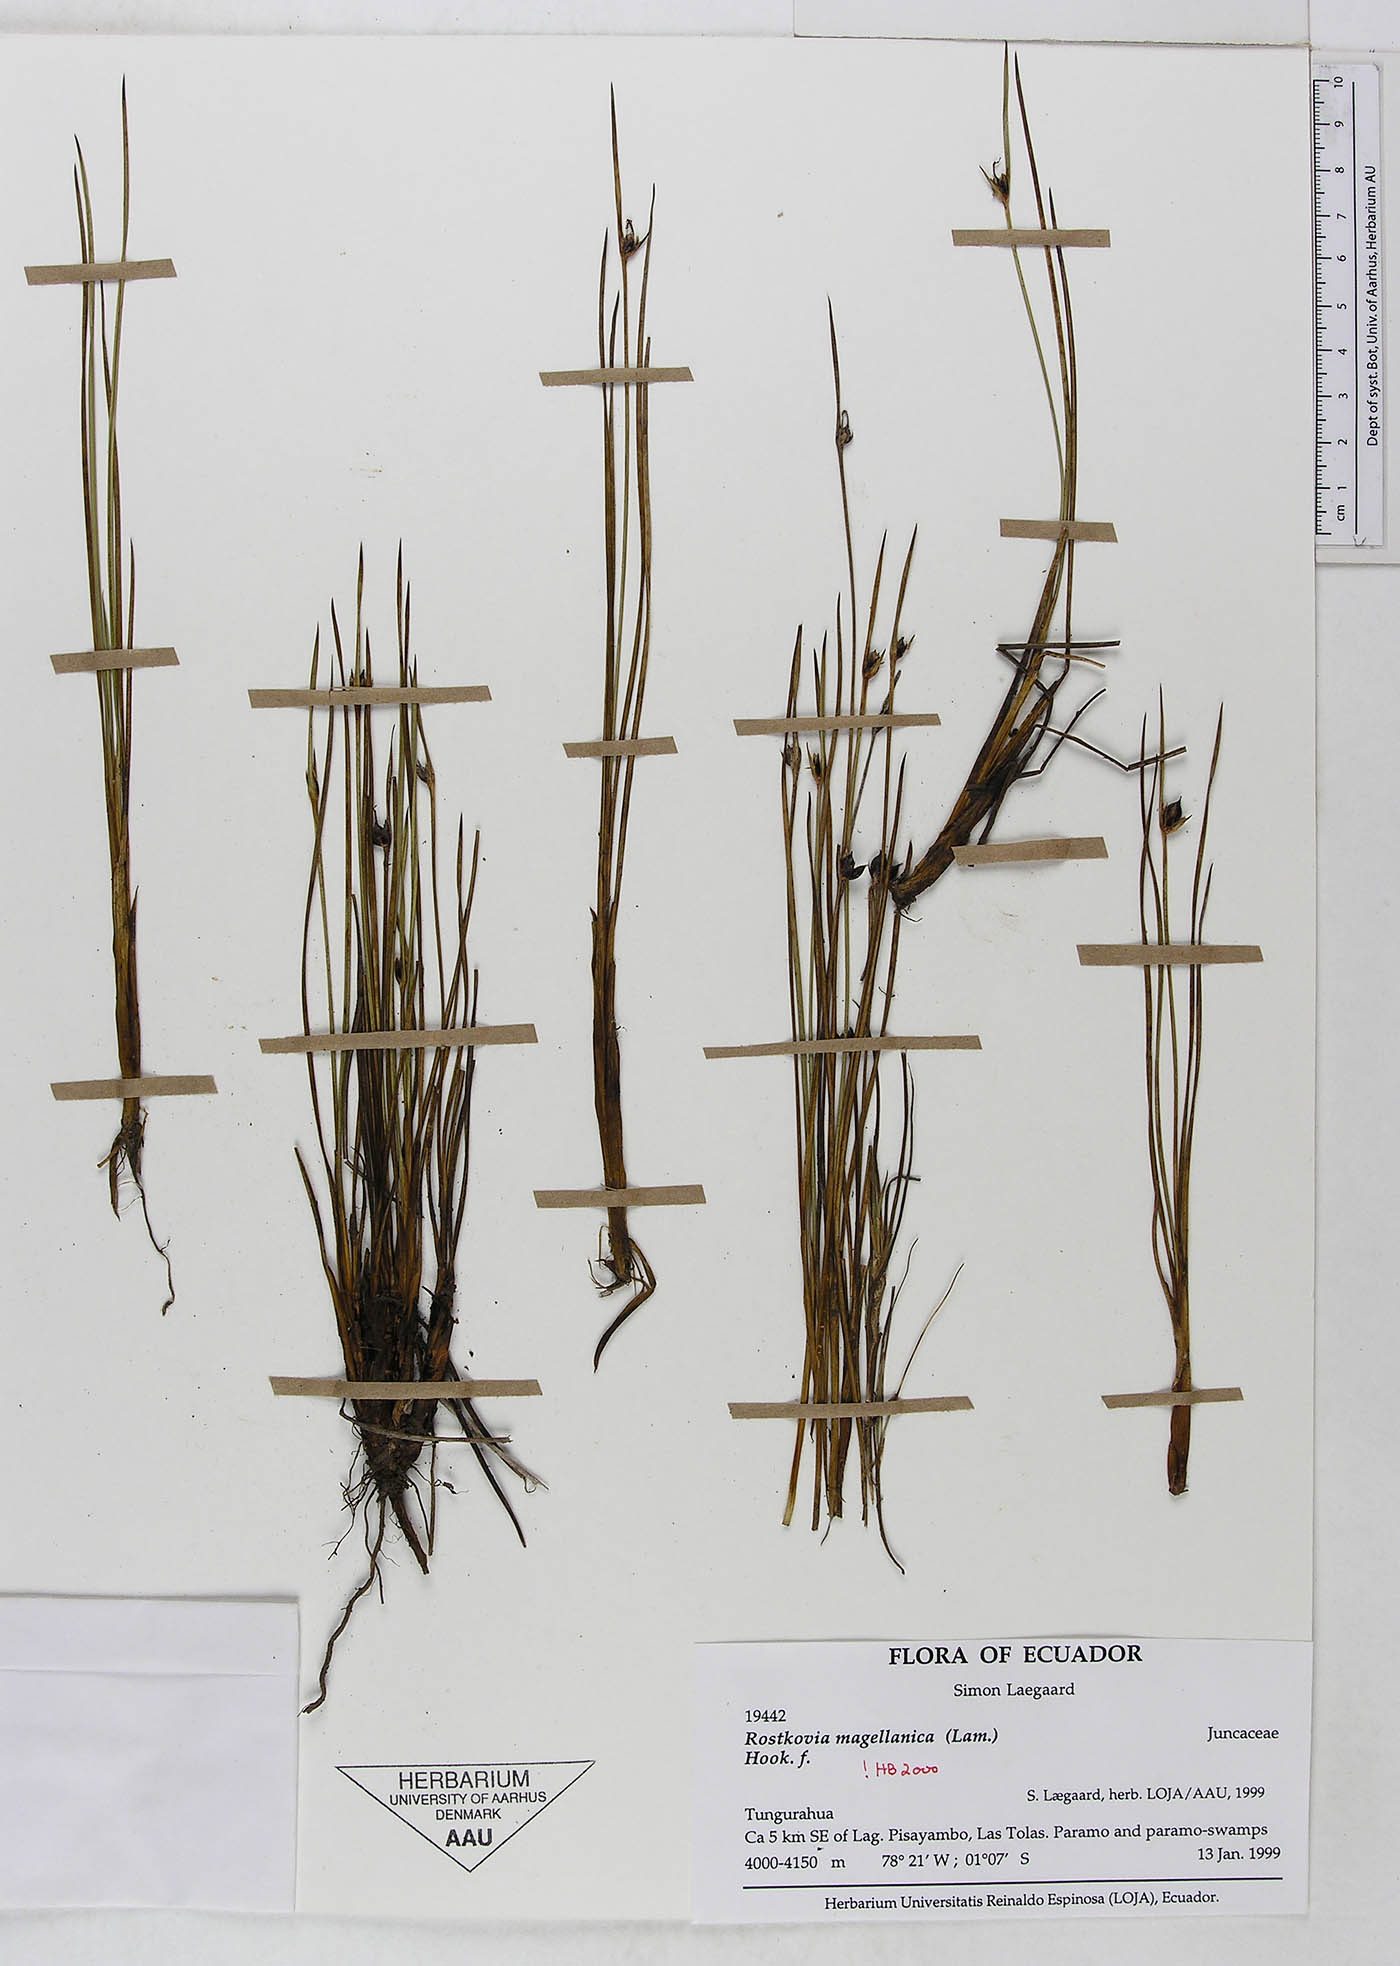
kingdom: Plantae
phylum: Tracheophyta
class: Liliopsida
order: Poales
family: Juncaceae
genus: Rostkovia
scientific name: Rostkovia magellanica
